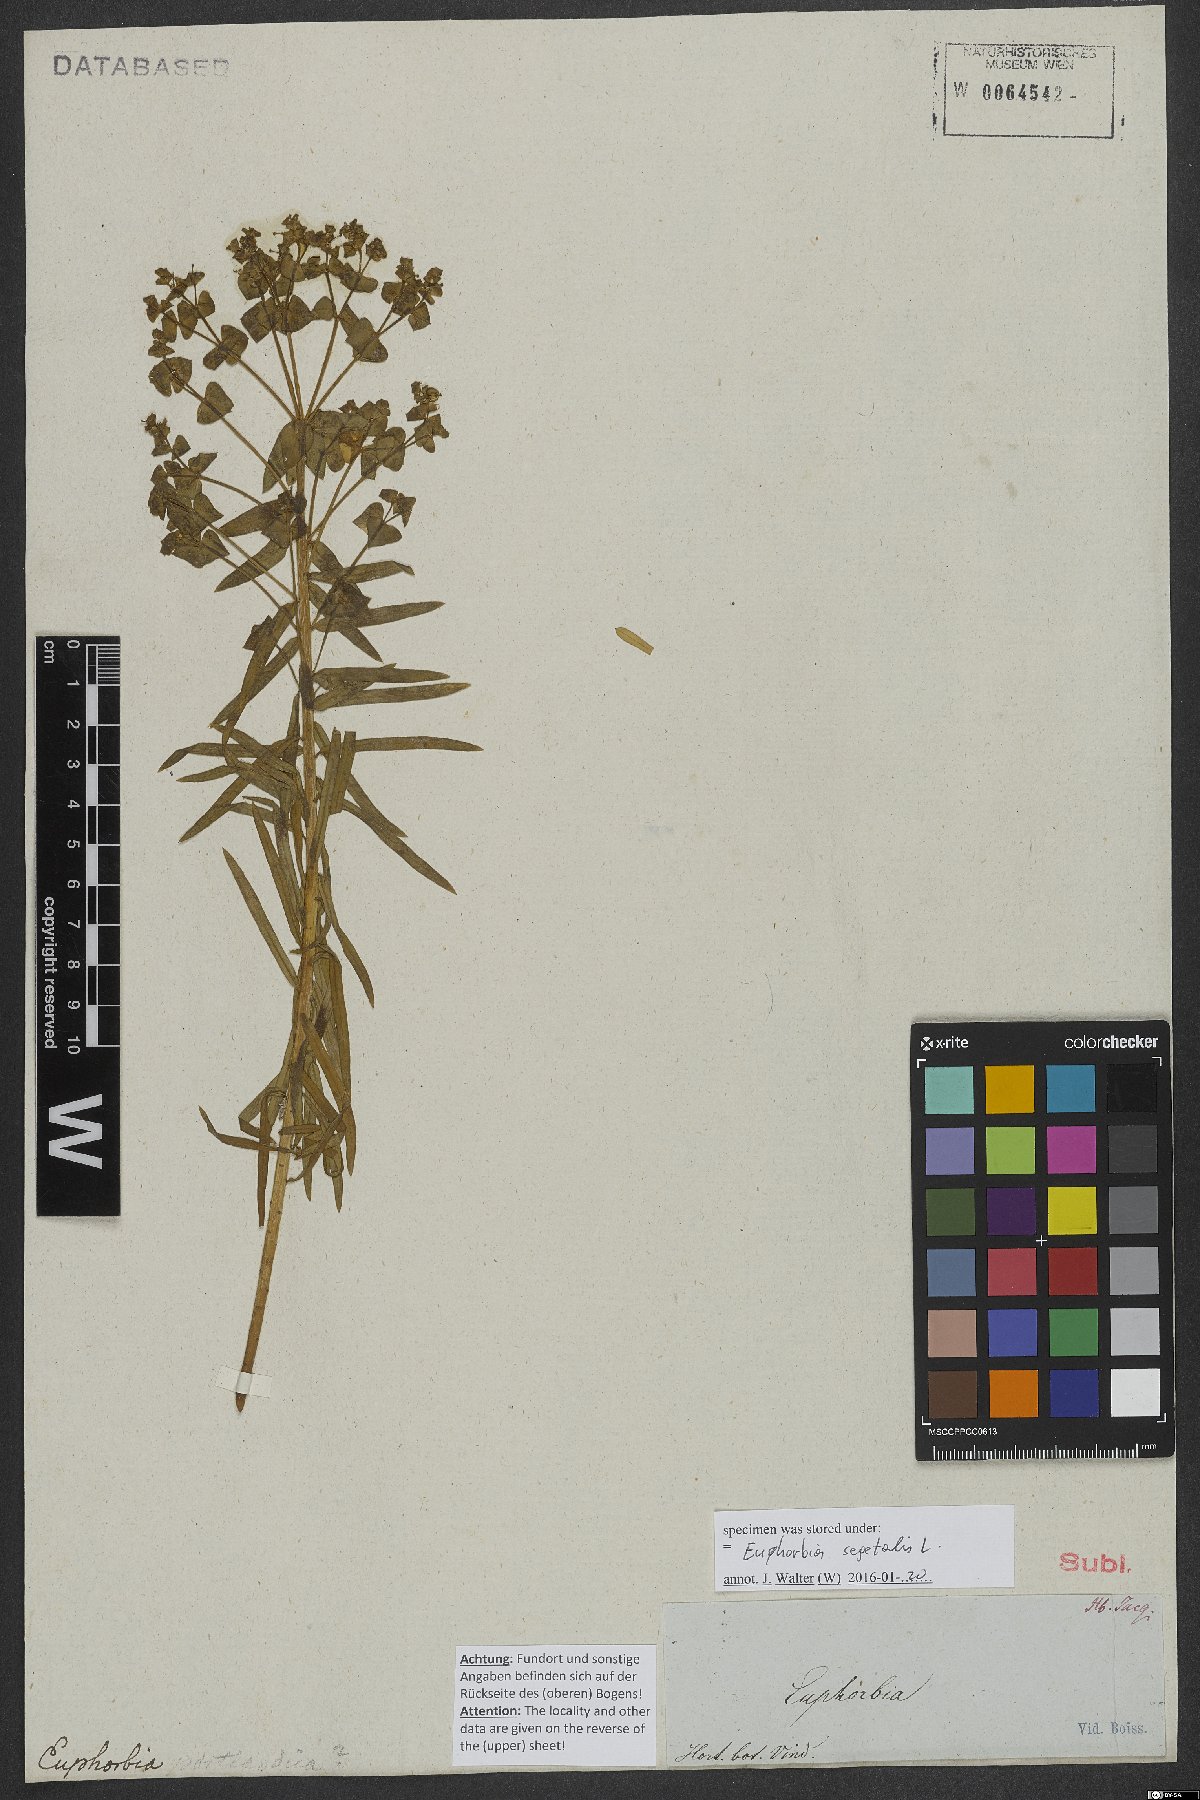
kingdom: Plantae
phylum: Tracheophyta
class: Magnoliopsida
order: Malpighiales
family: Euphorbiaceae
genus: Euphorbia
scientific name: Euphorbia segetalis
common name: Corn spurge
